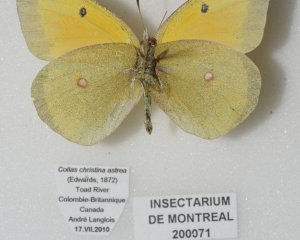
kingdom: Animalia
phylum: Arthropoda
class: Insecta
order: Lepidoptera
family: Pieridae
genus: Colias
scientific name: Colias christina
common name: Christina Sulphur
